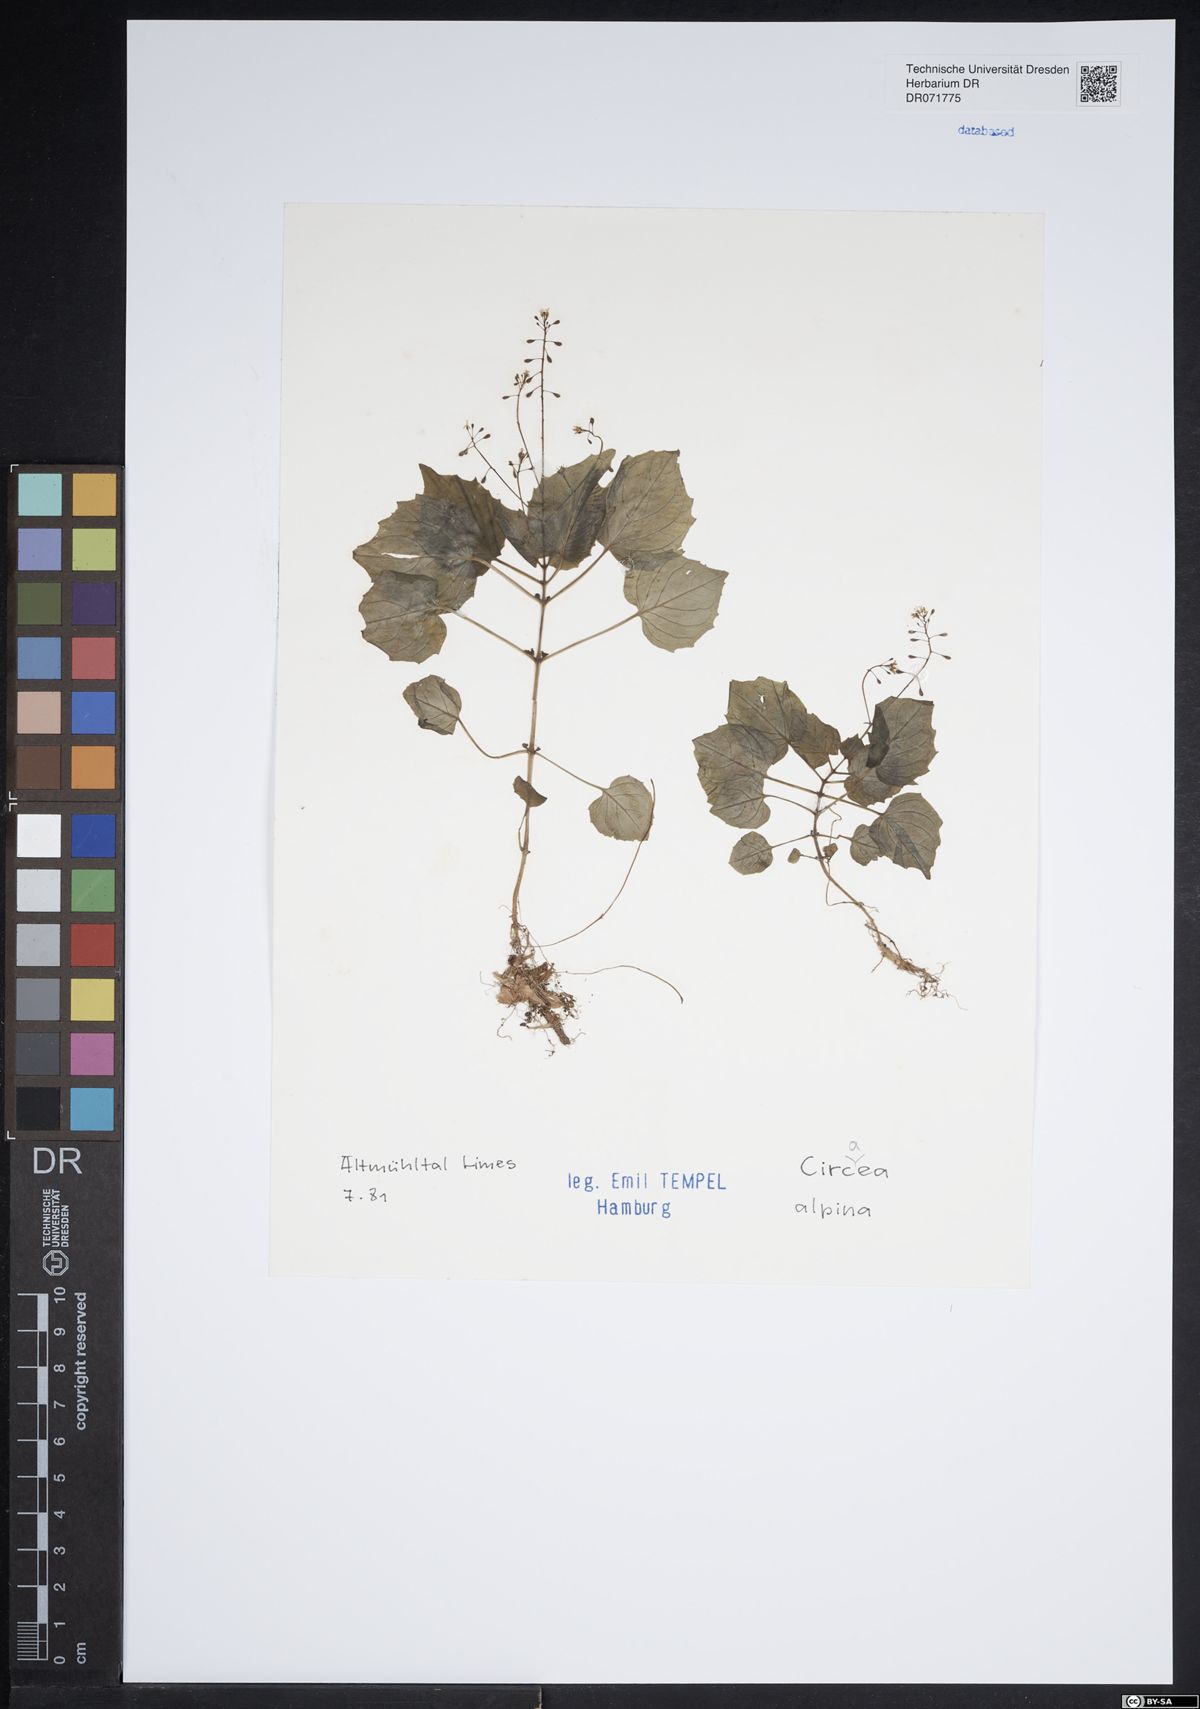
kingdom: Plantae
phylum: Tracheophyta
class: Magnoliopsida
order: Myrtales
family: Onagraceae
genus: Circaea
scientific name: Circaea alpina
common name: Alpine enchanter's-nightshade
